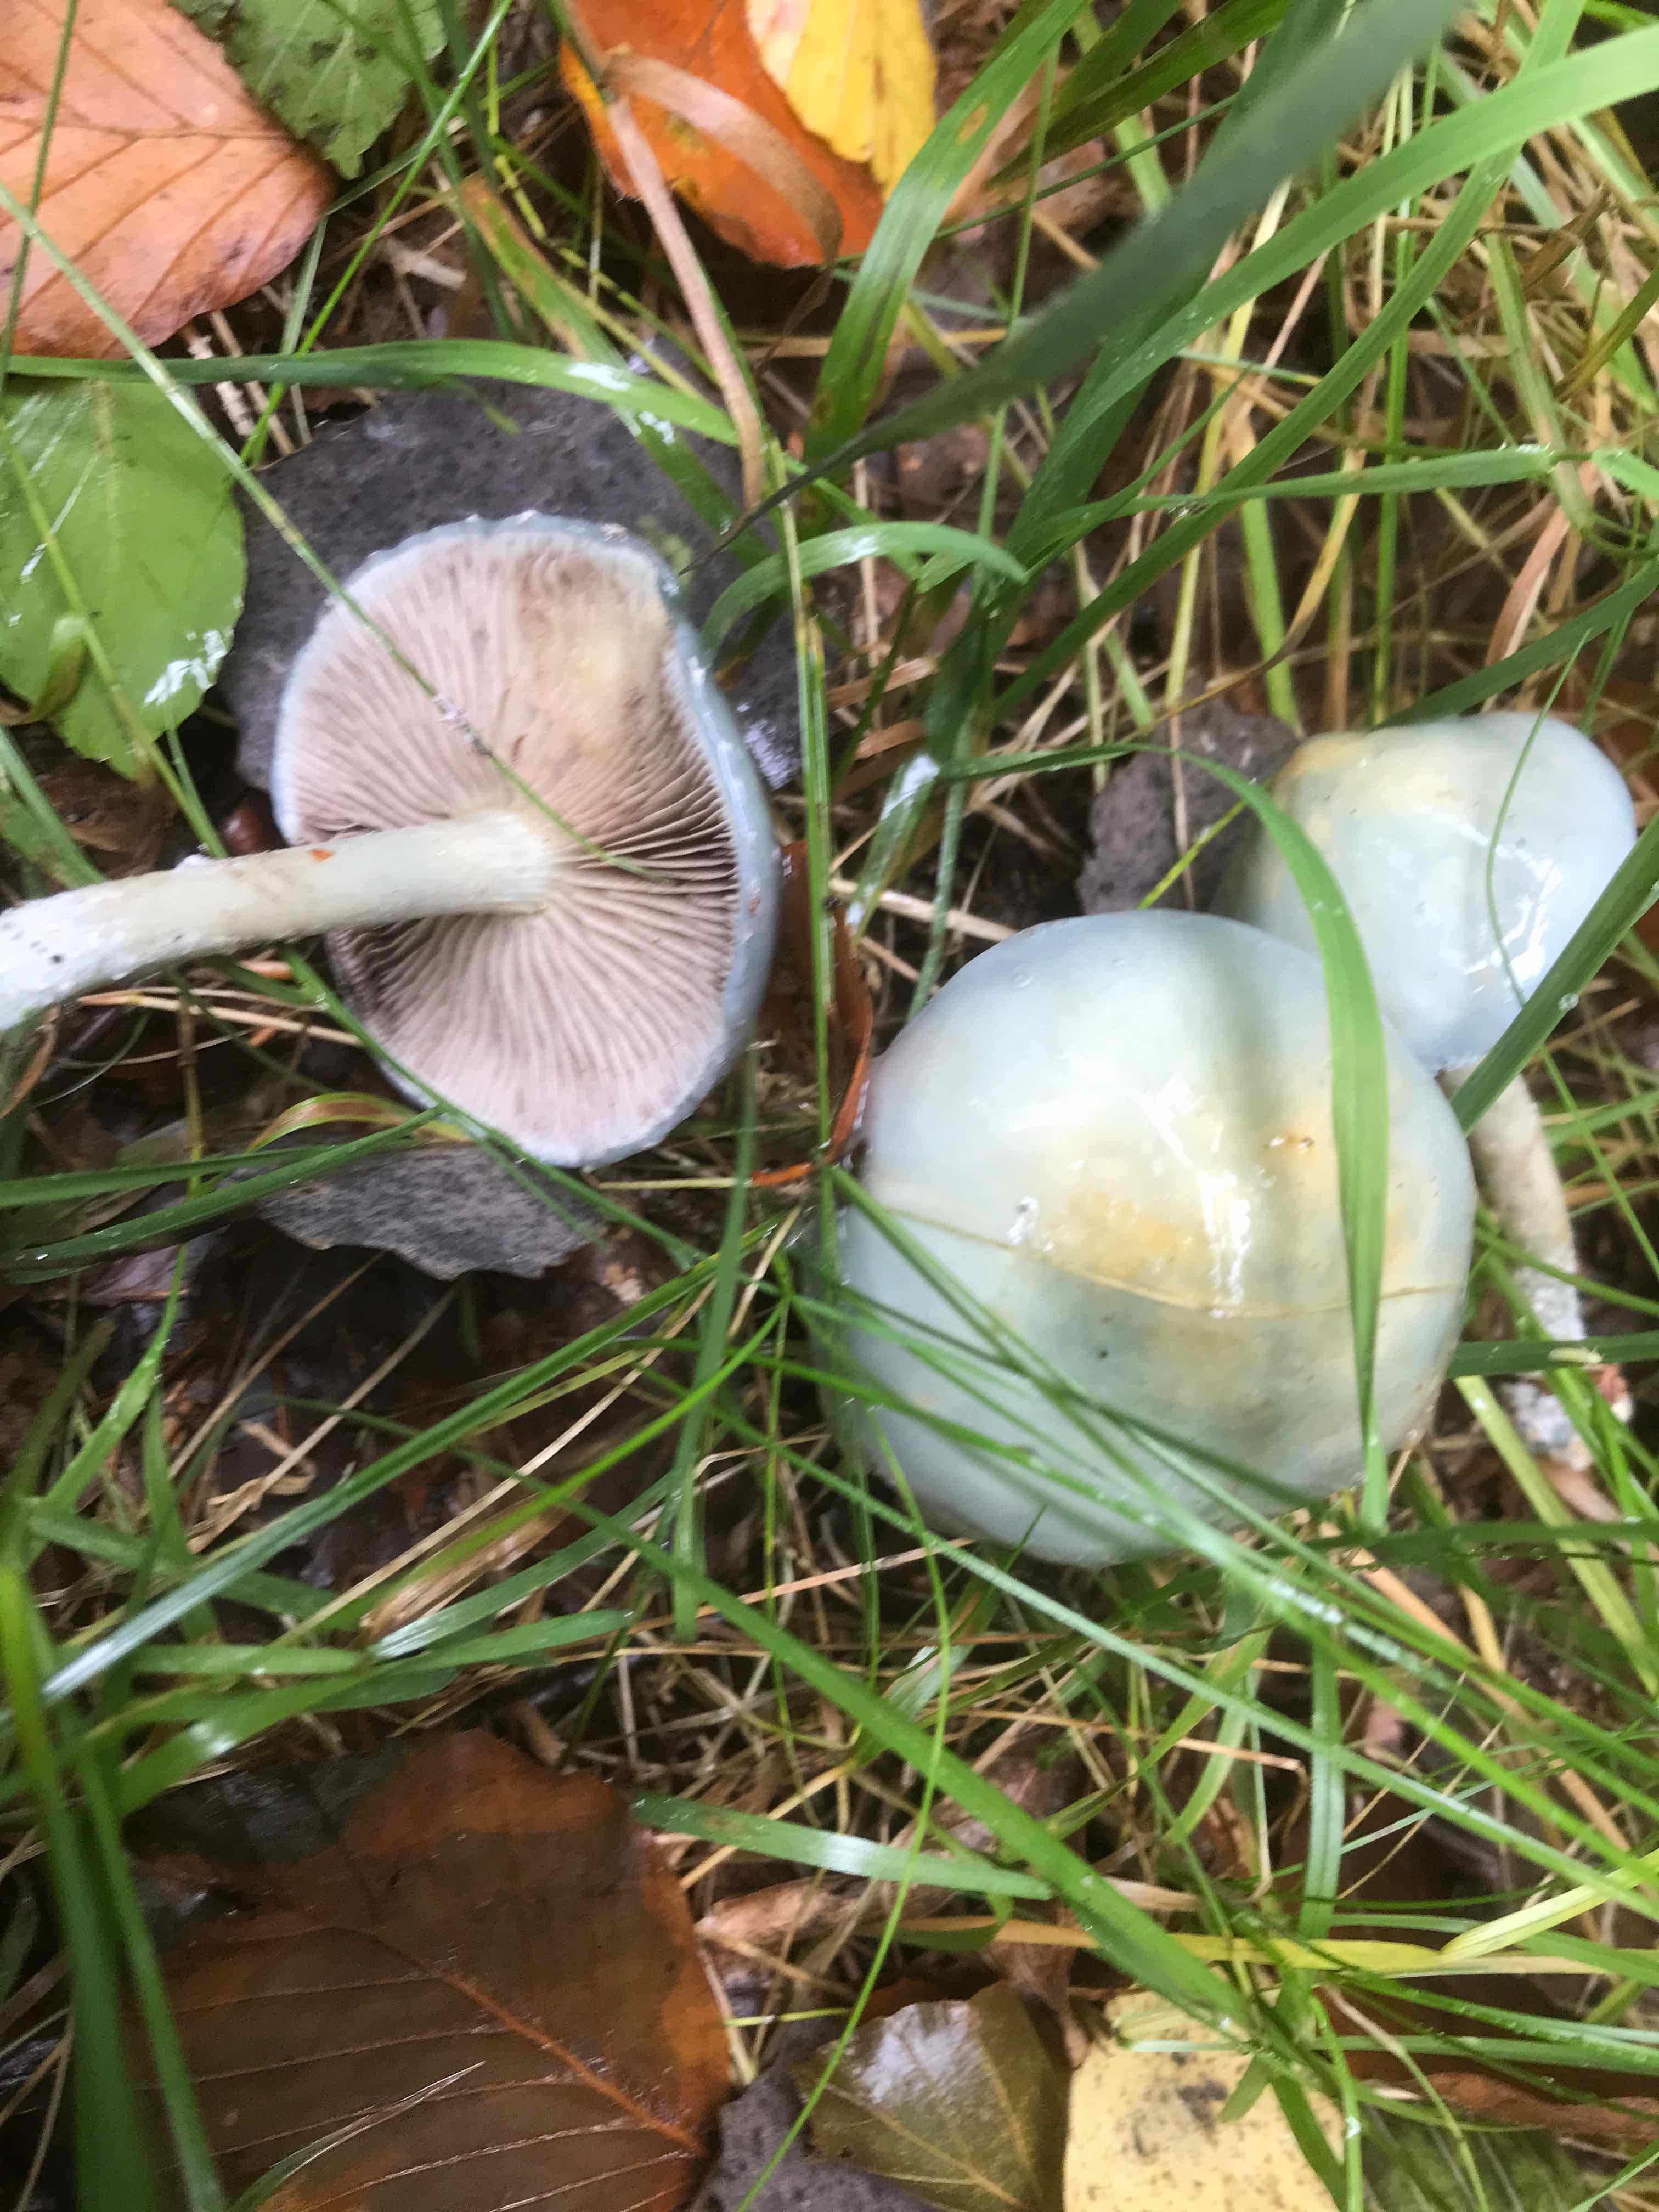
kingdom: Fungi
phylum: Basidiomycota
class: Agaricomycetes
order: Agaricales
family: Strophariaceae
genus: Stropharia
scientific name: Stropharia cyanea
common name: blågrøn bredblad
